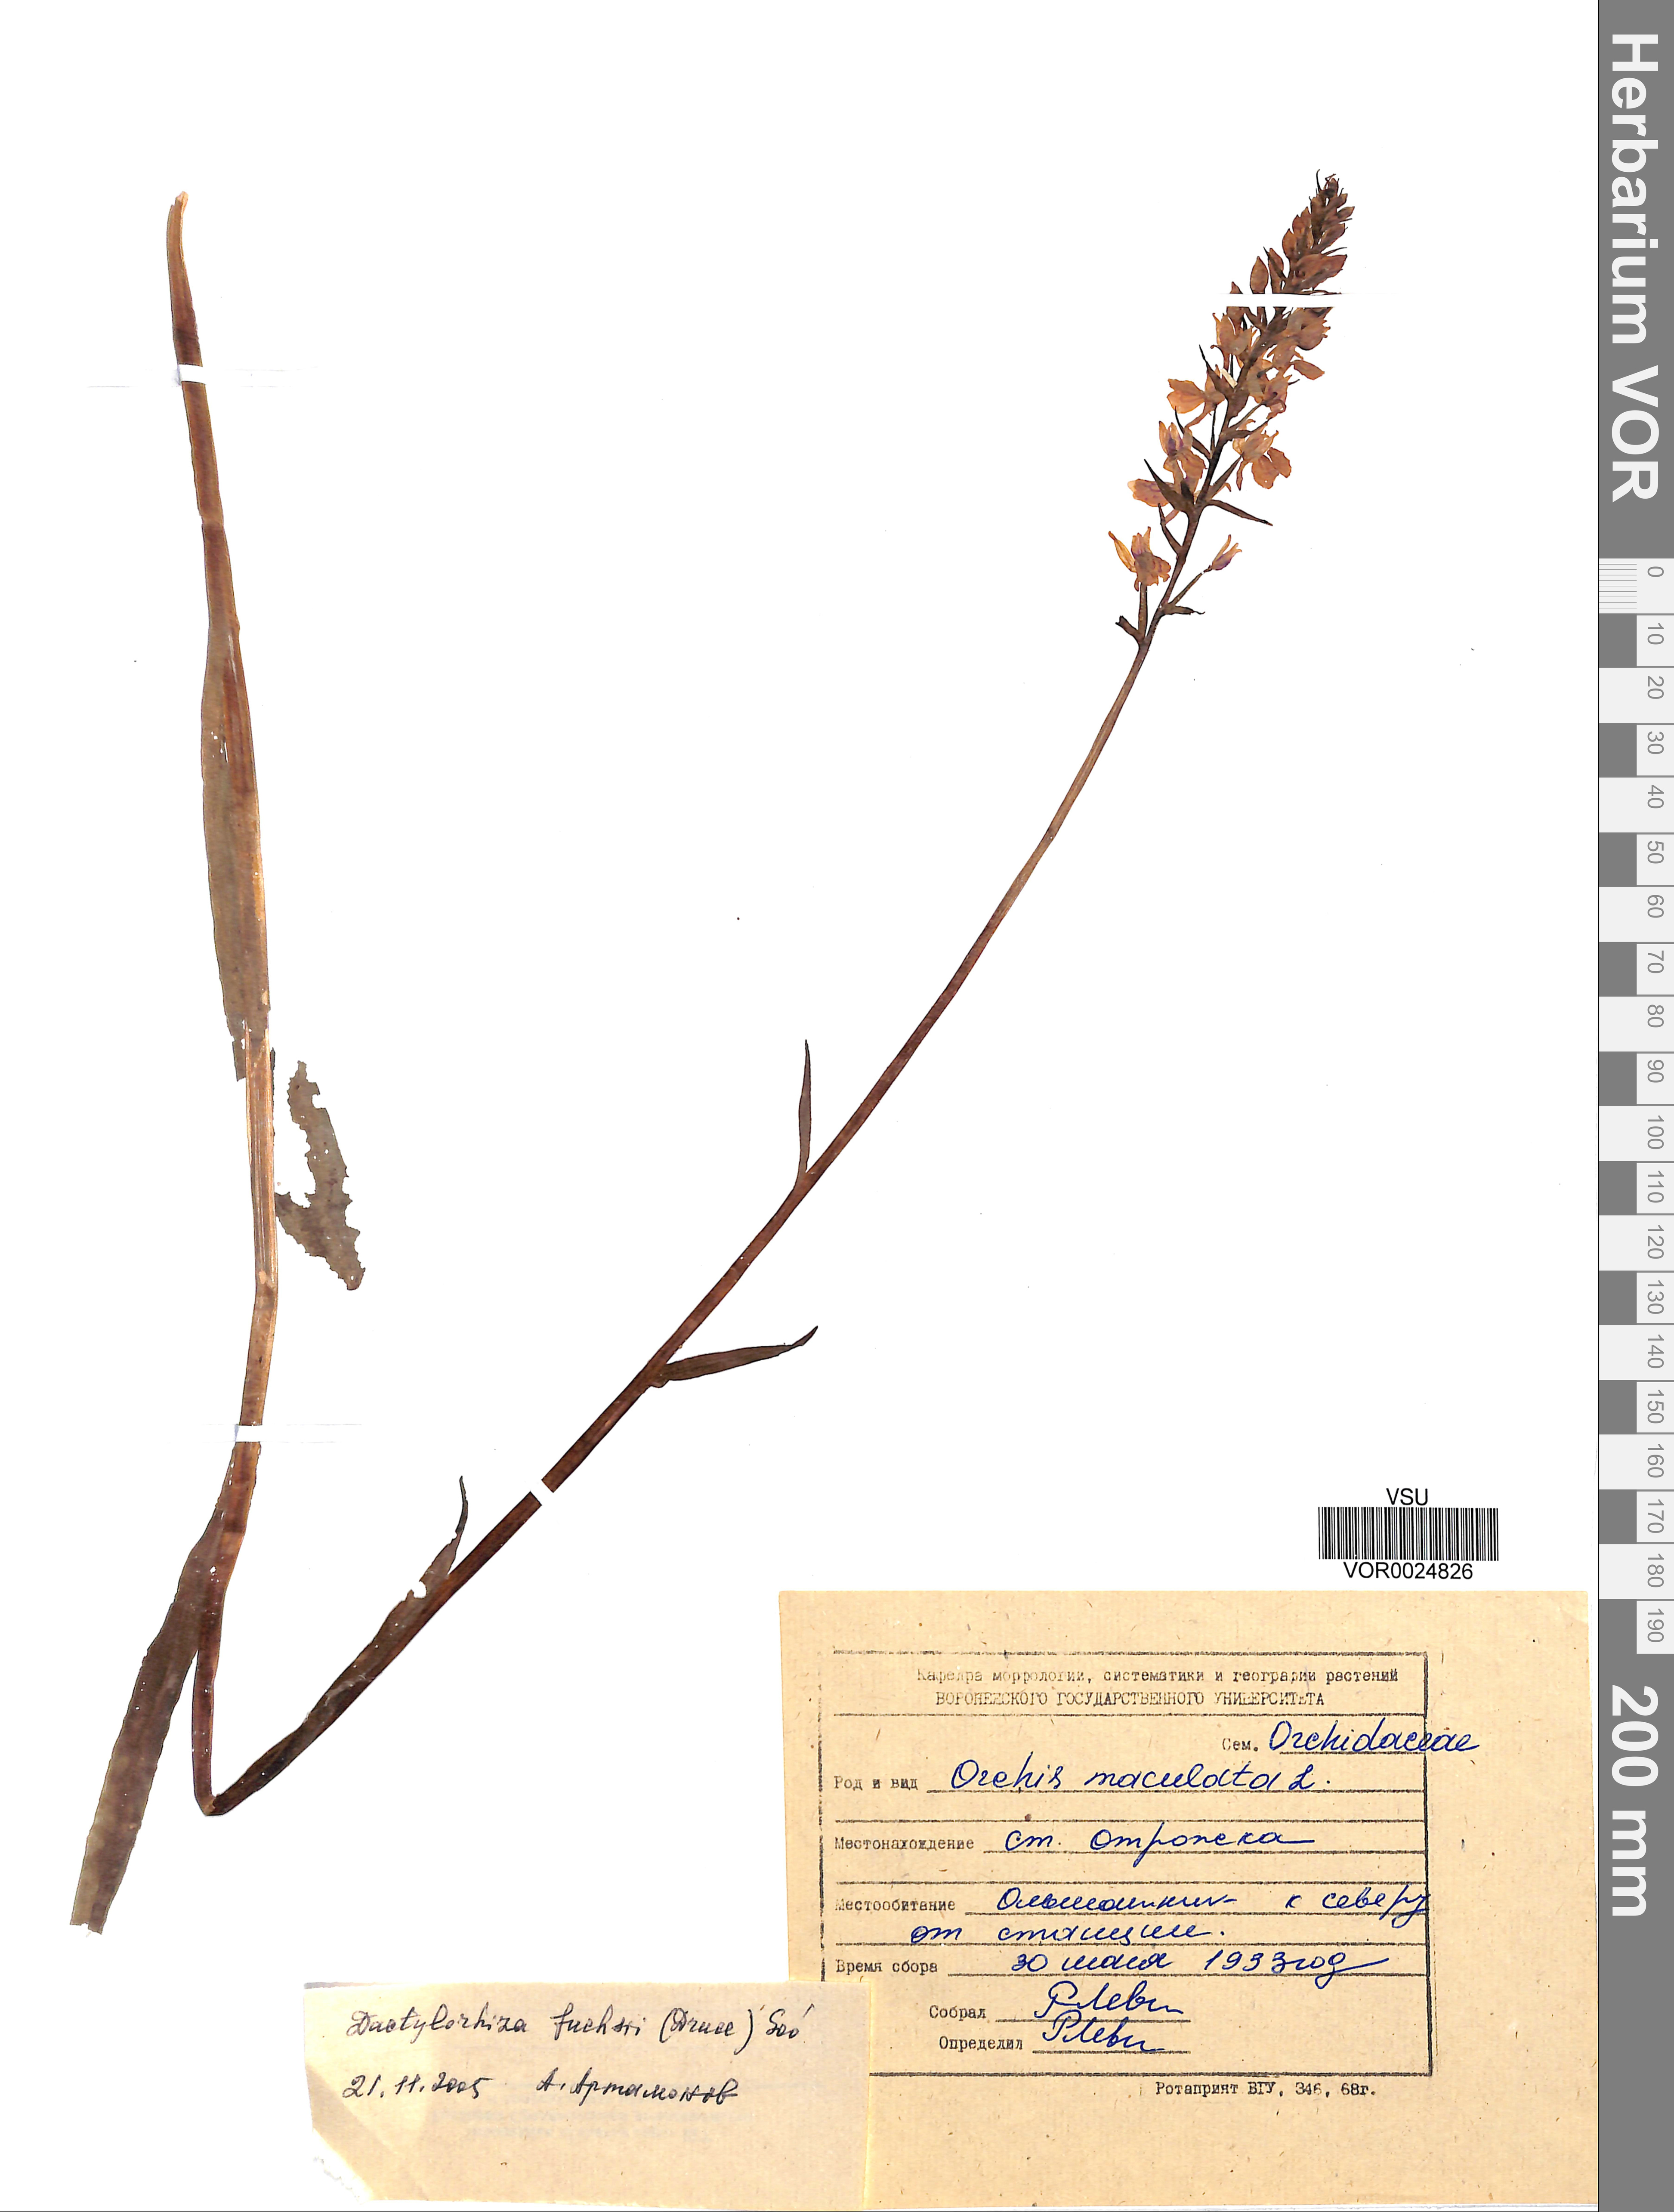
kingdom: Plantae
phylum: Tracheophyta
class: Liliopsida
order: Asparagales
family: Orchidaceae
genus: Dactylorhiza
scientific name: Dactylorhiza maculata
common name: Heath spotted-orchid
